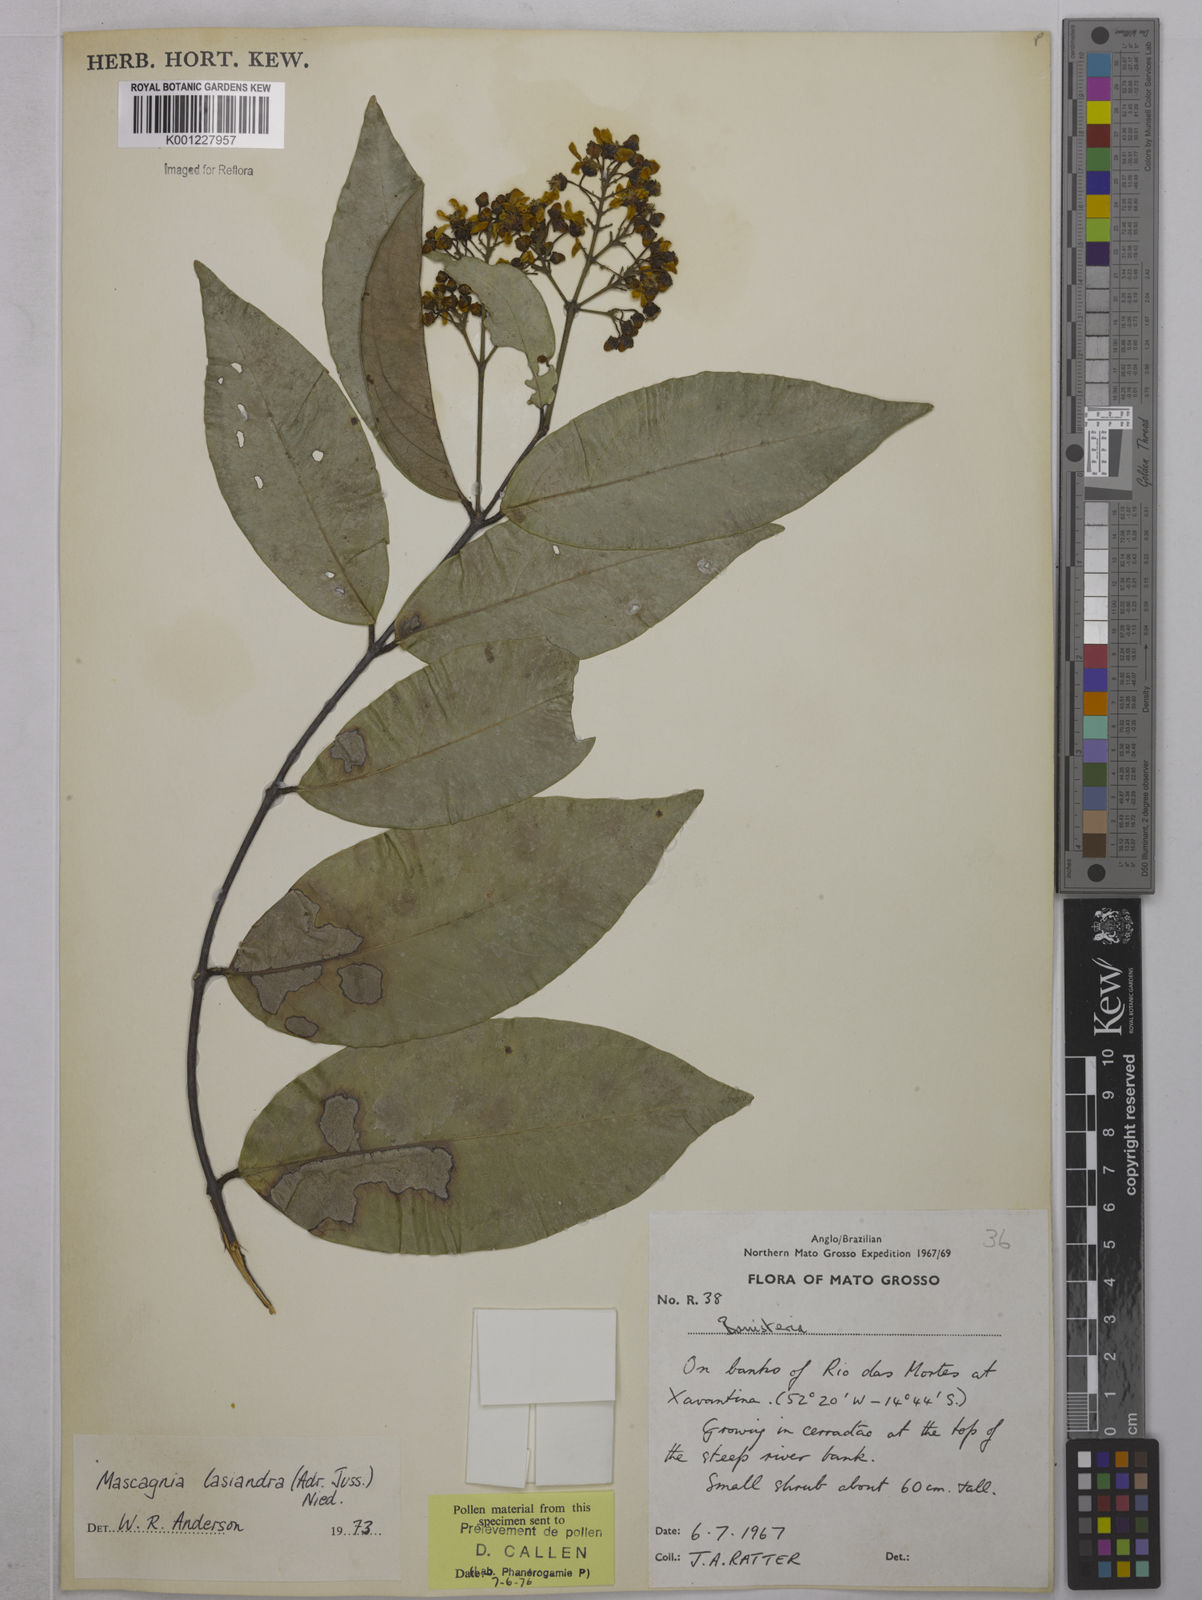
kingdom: Plantae
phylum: Tracheophyta
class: Magnoliopsida
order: Malpighiales
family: Malpighiaceae
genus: Niedenzuella
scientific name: Niedenzuella lasiandra
